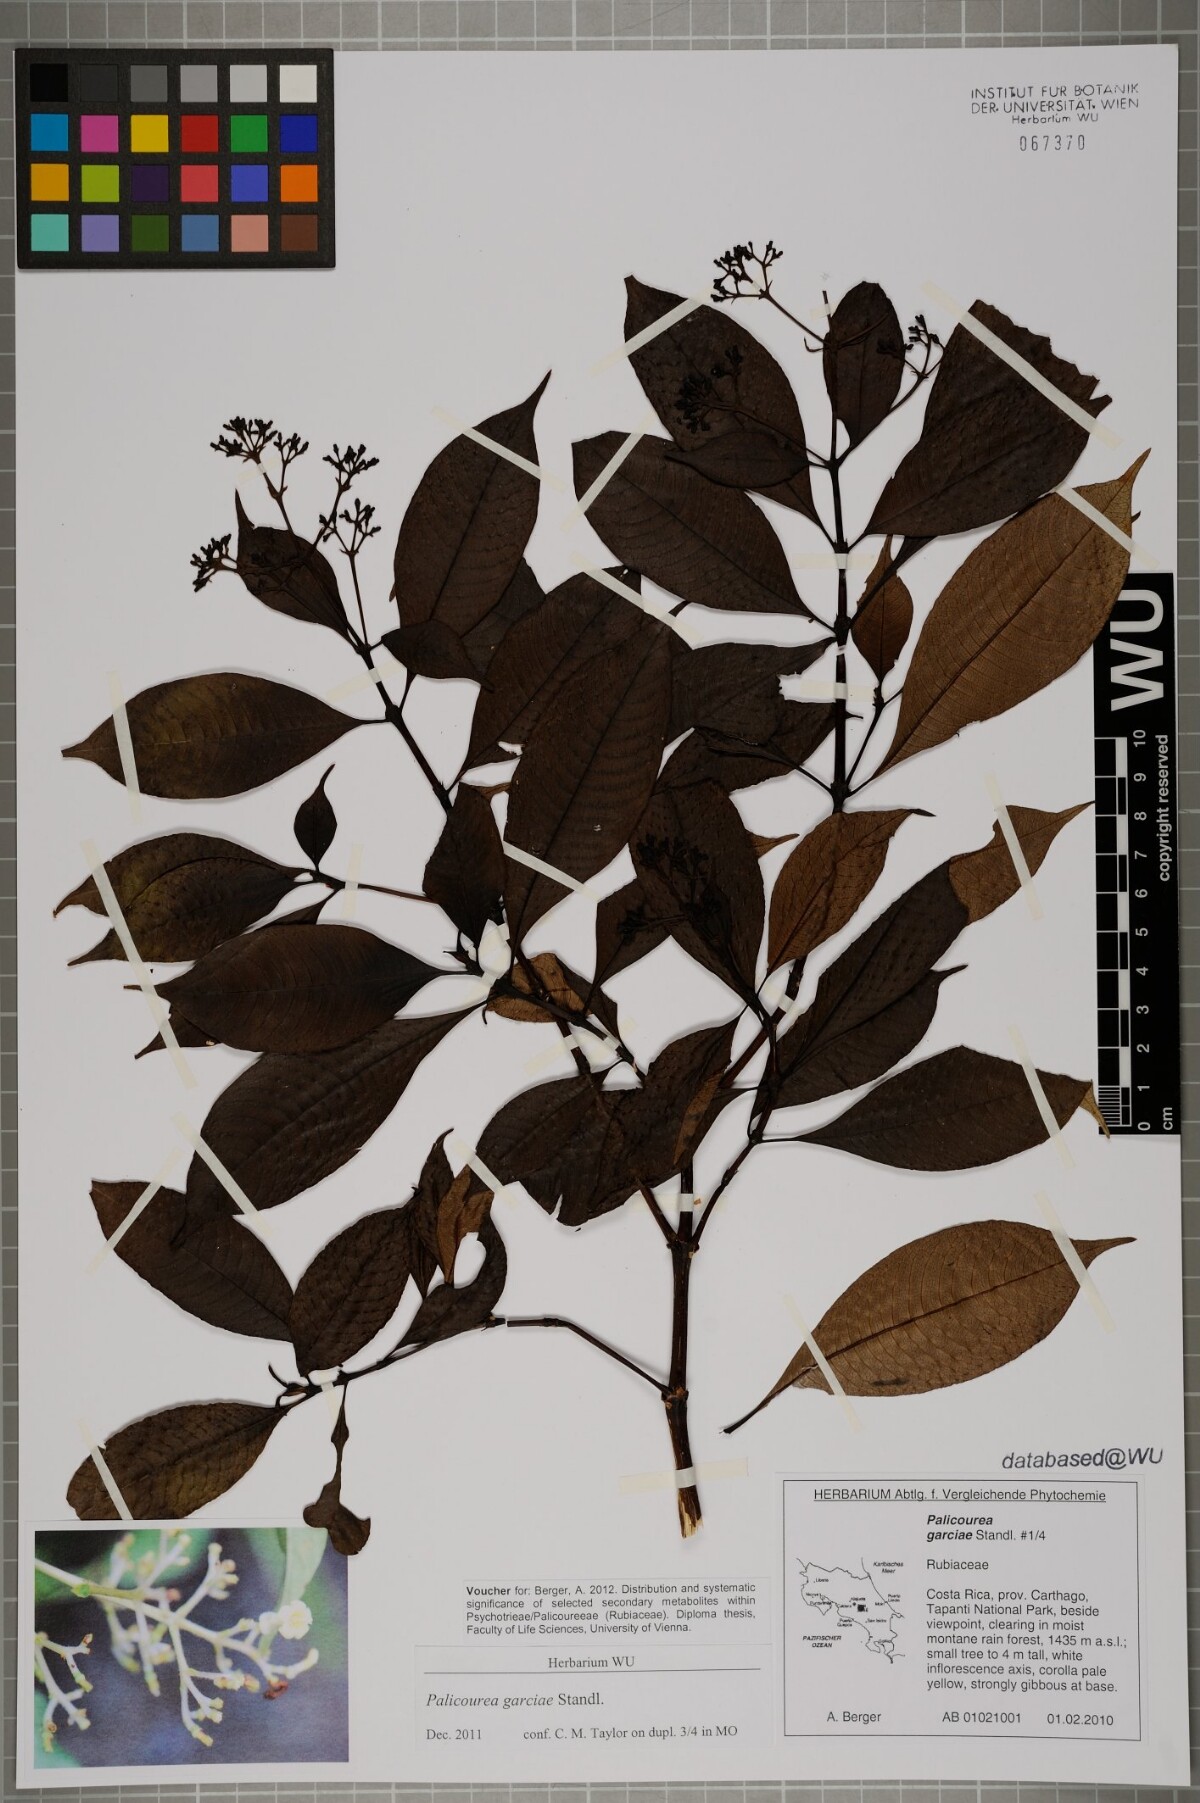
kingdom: Plantae
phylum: Tracheophyta
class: Magnoliopsida
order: Gentianales
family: Rubiaceae
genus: Palicourea
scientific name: Palicourea garciae
